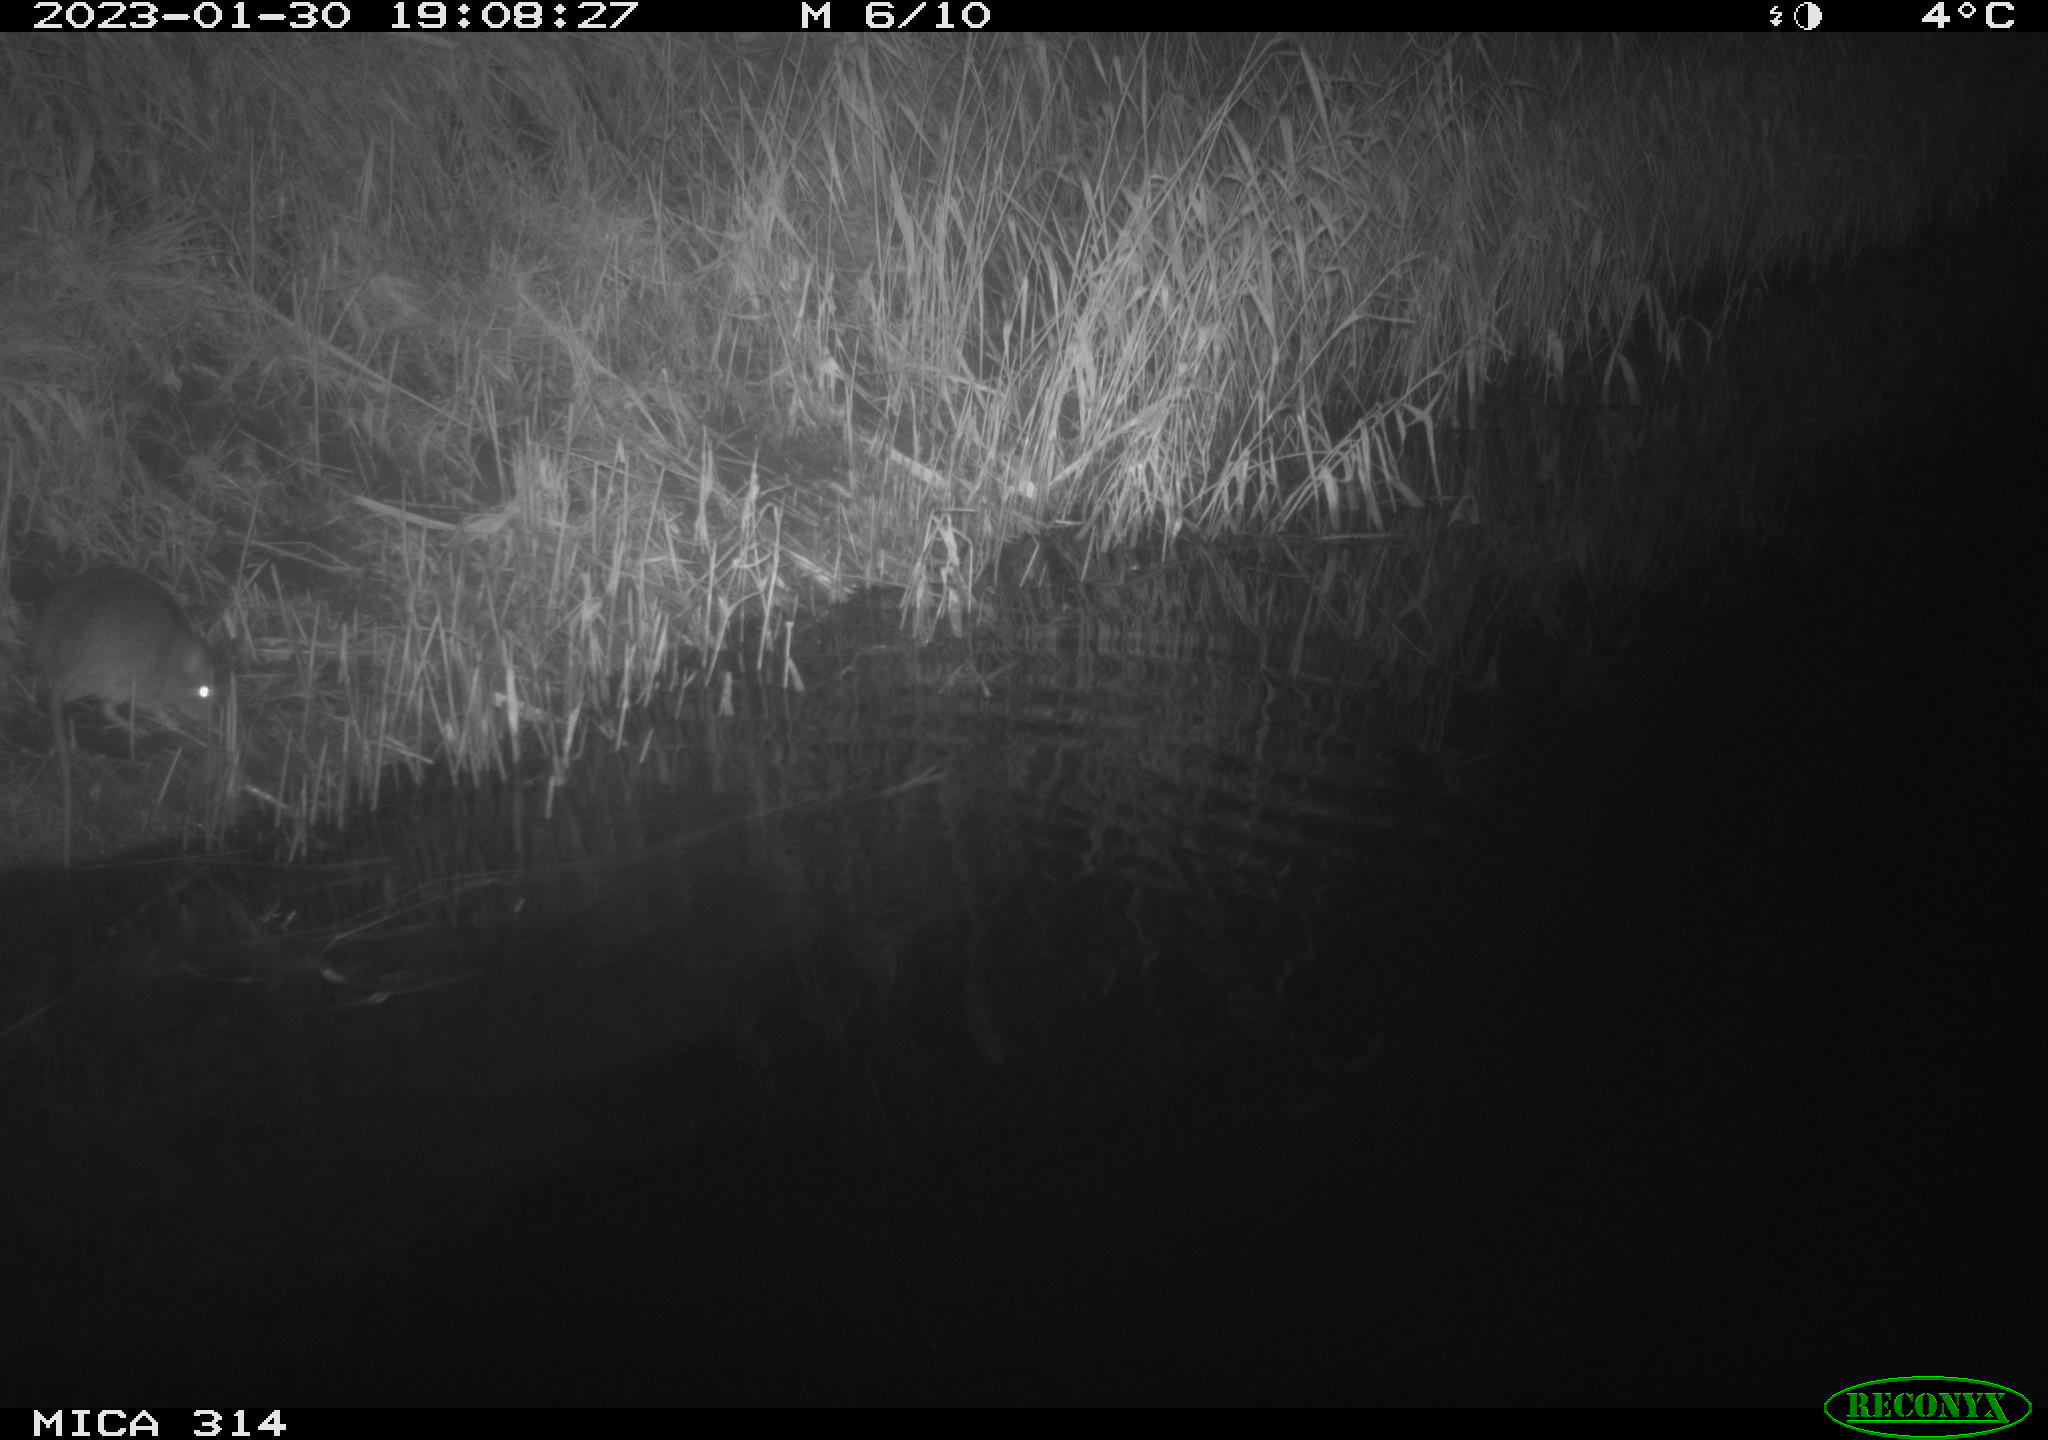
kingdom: Animalia
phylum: Chordata
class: Mammalia
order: Rodentia
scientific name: Rodentia
